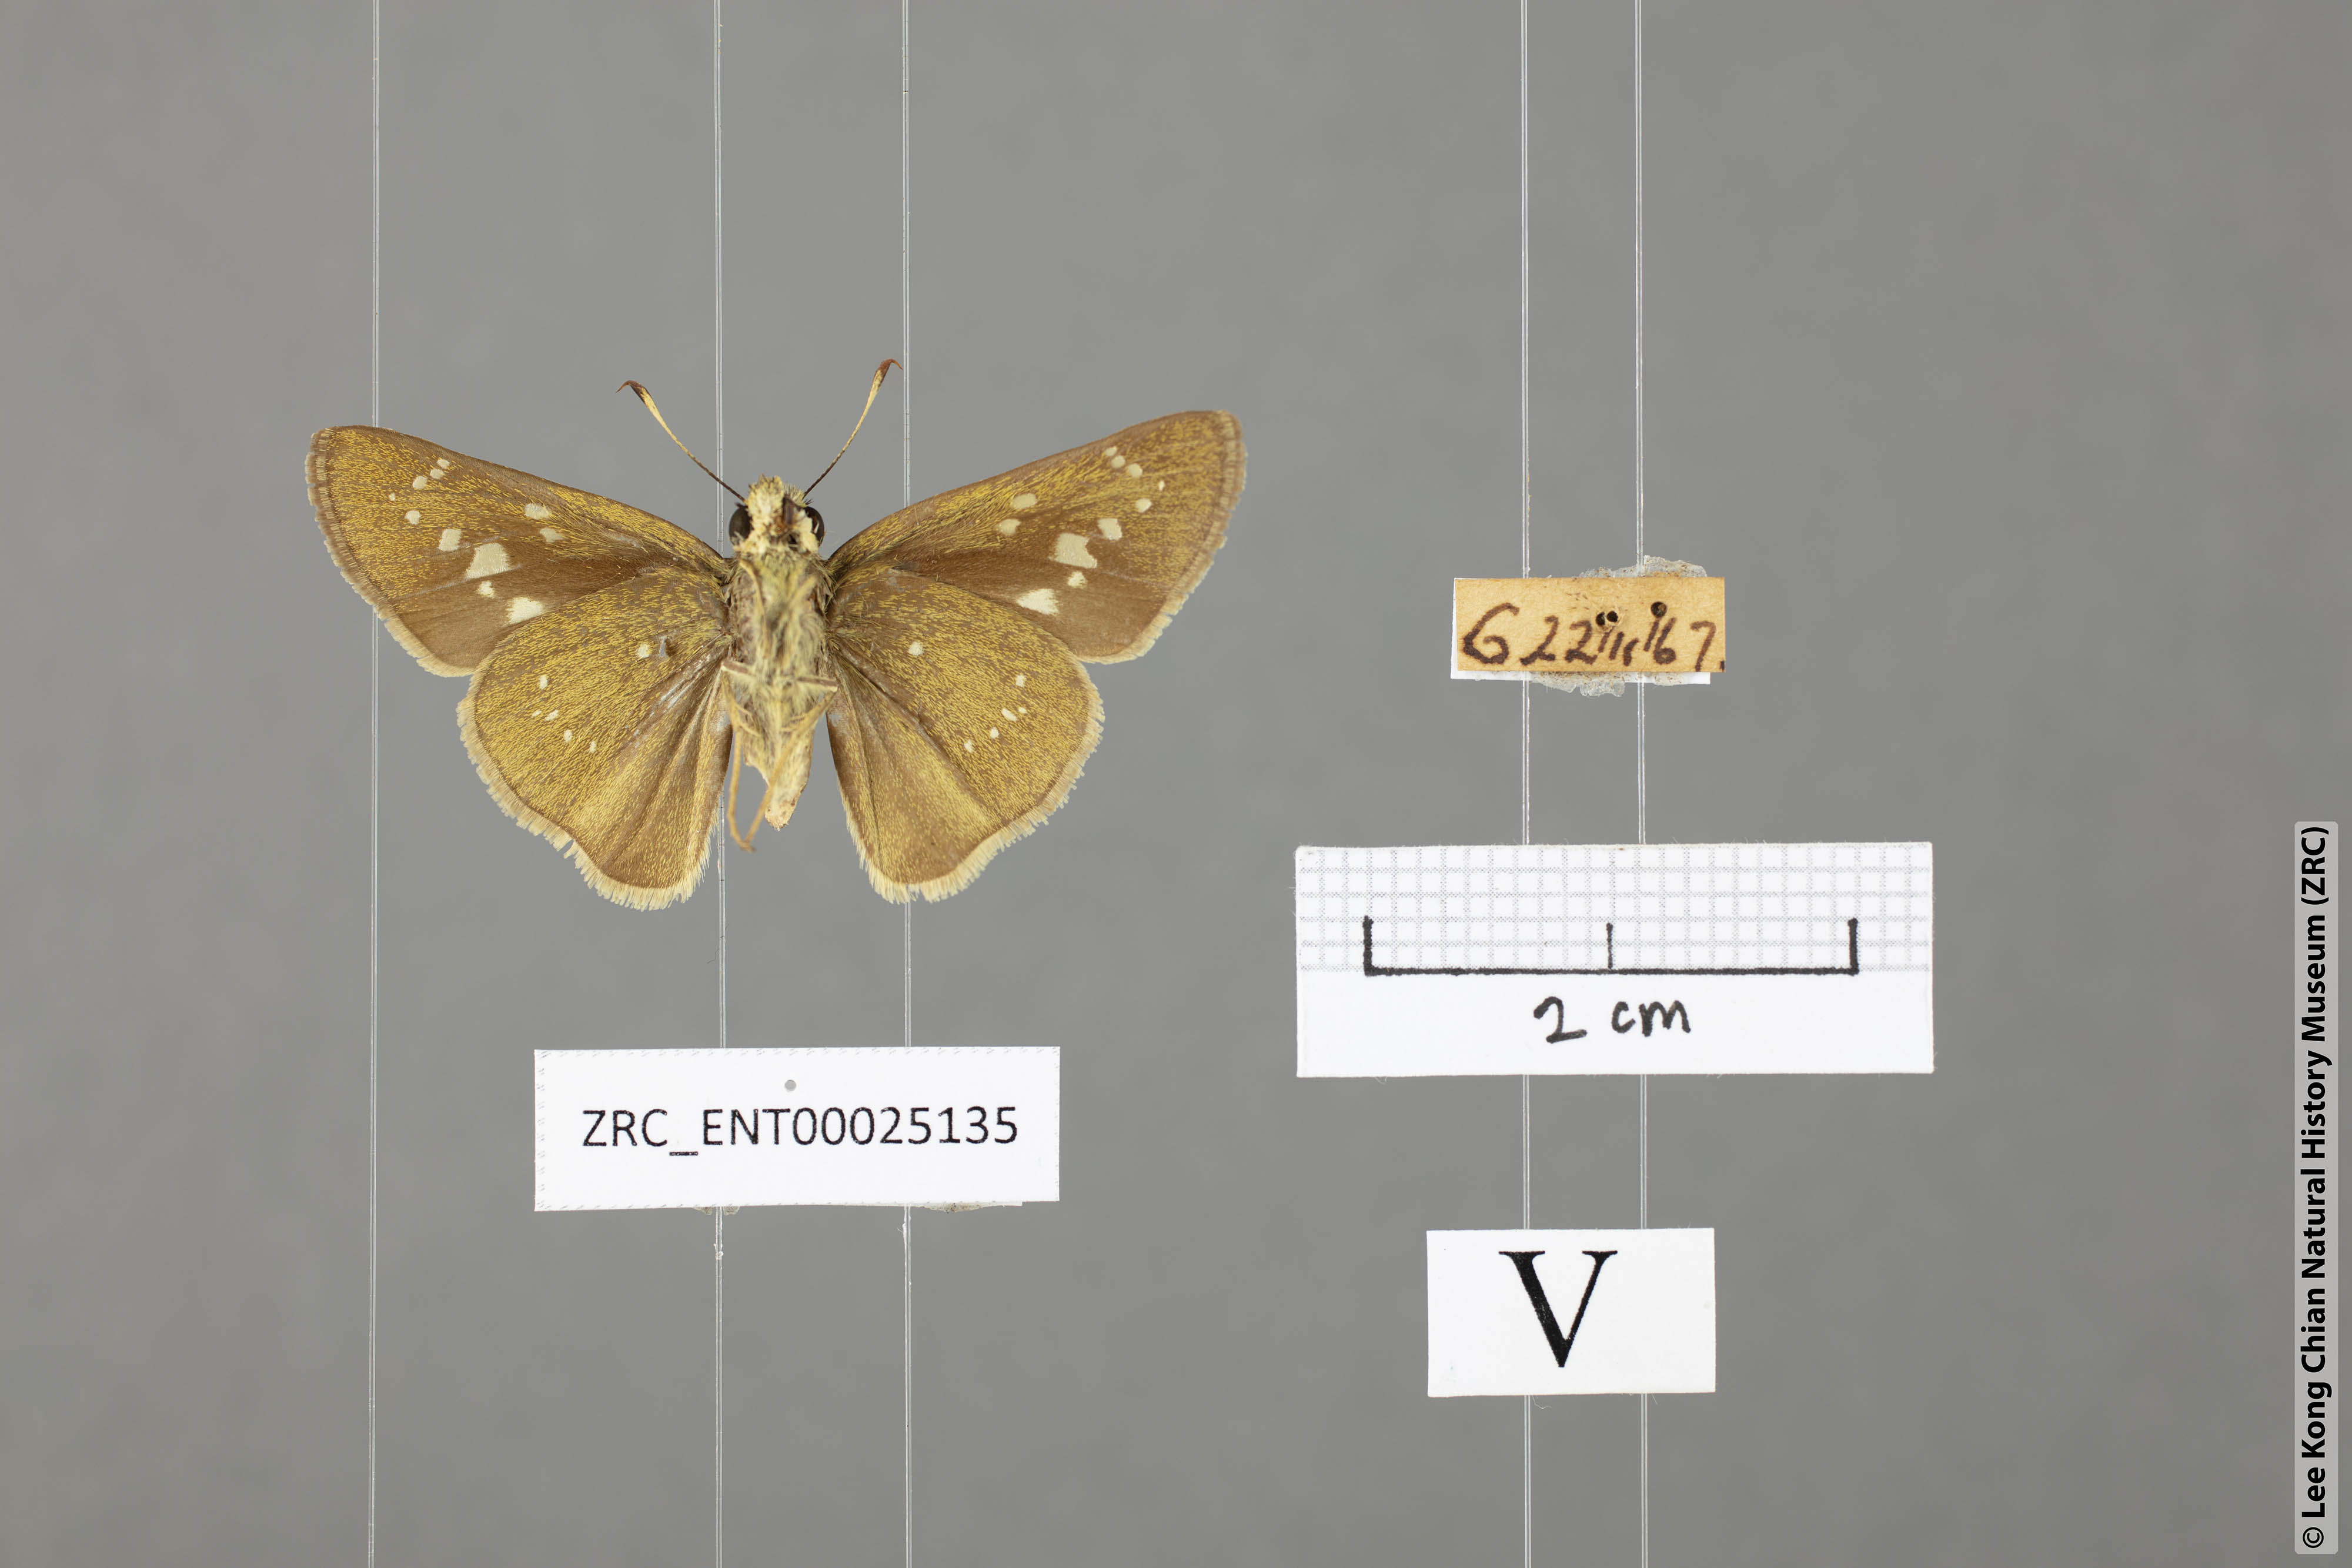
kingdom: Animalia
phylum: Arthropoda
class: Insecta
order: Lepidoptera
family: Hesperiidae
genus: Pelopidas
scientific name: Pelopidas agna
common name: Little branded swift
